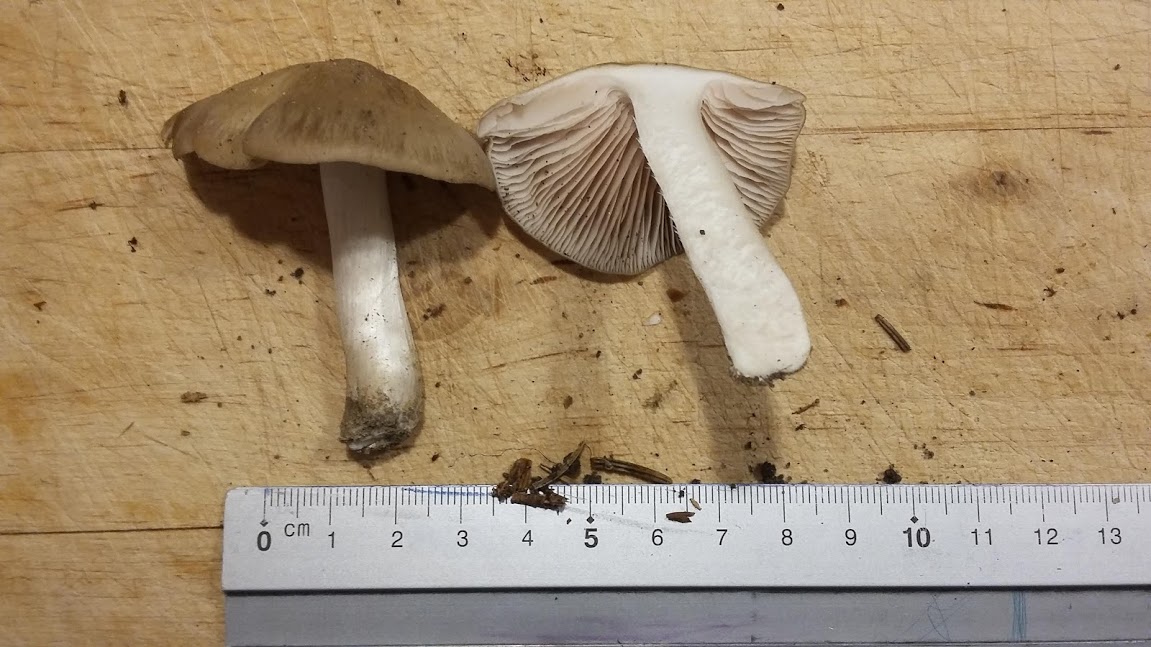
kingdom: Fungi
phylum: Basidiomycota
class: Agaricomycetes
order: Agaricales
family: Entolomataceae
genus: Entoloma
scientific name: Entoloma
